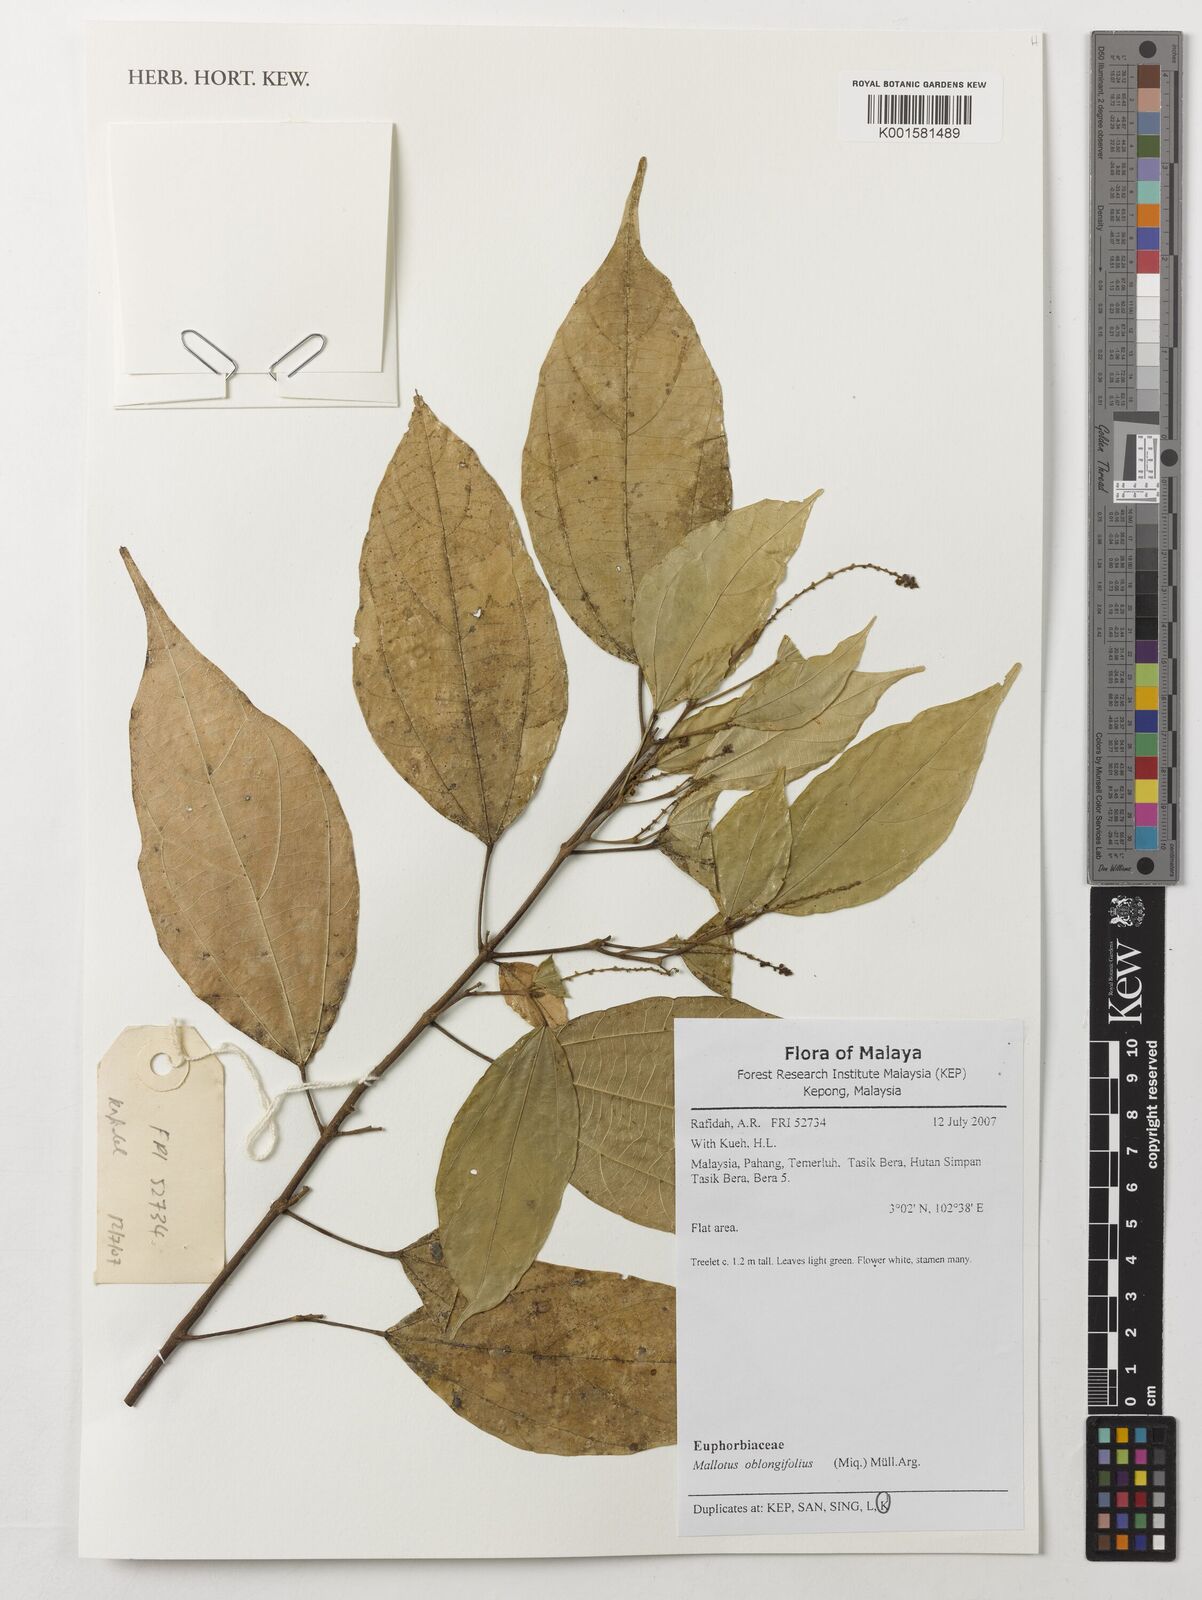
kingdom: Plantae
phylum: Tracheophyta
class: Magnoliopsida
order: Malpighiales
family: Euphorbiaceae
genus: Mallotus
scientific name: Mallotus peltatus
